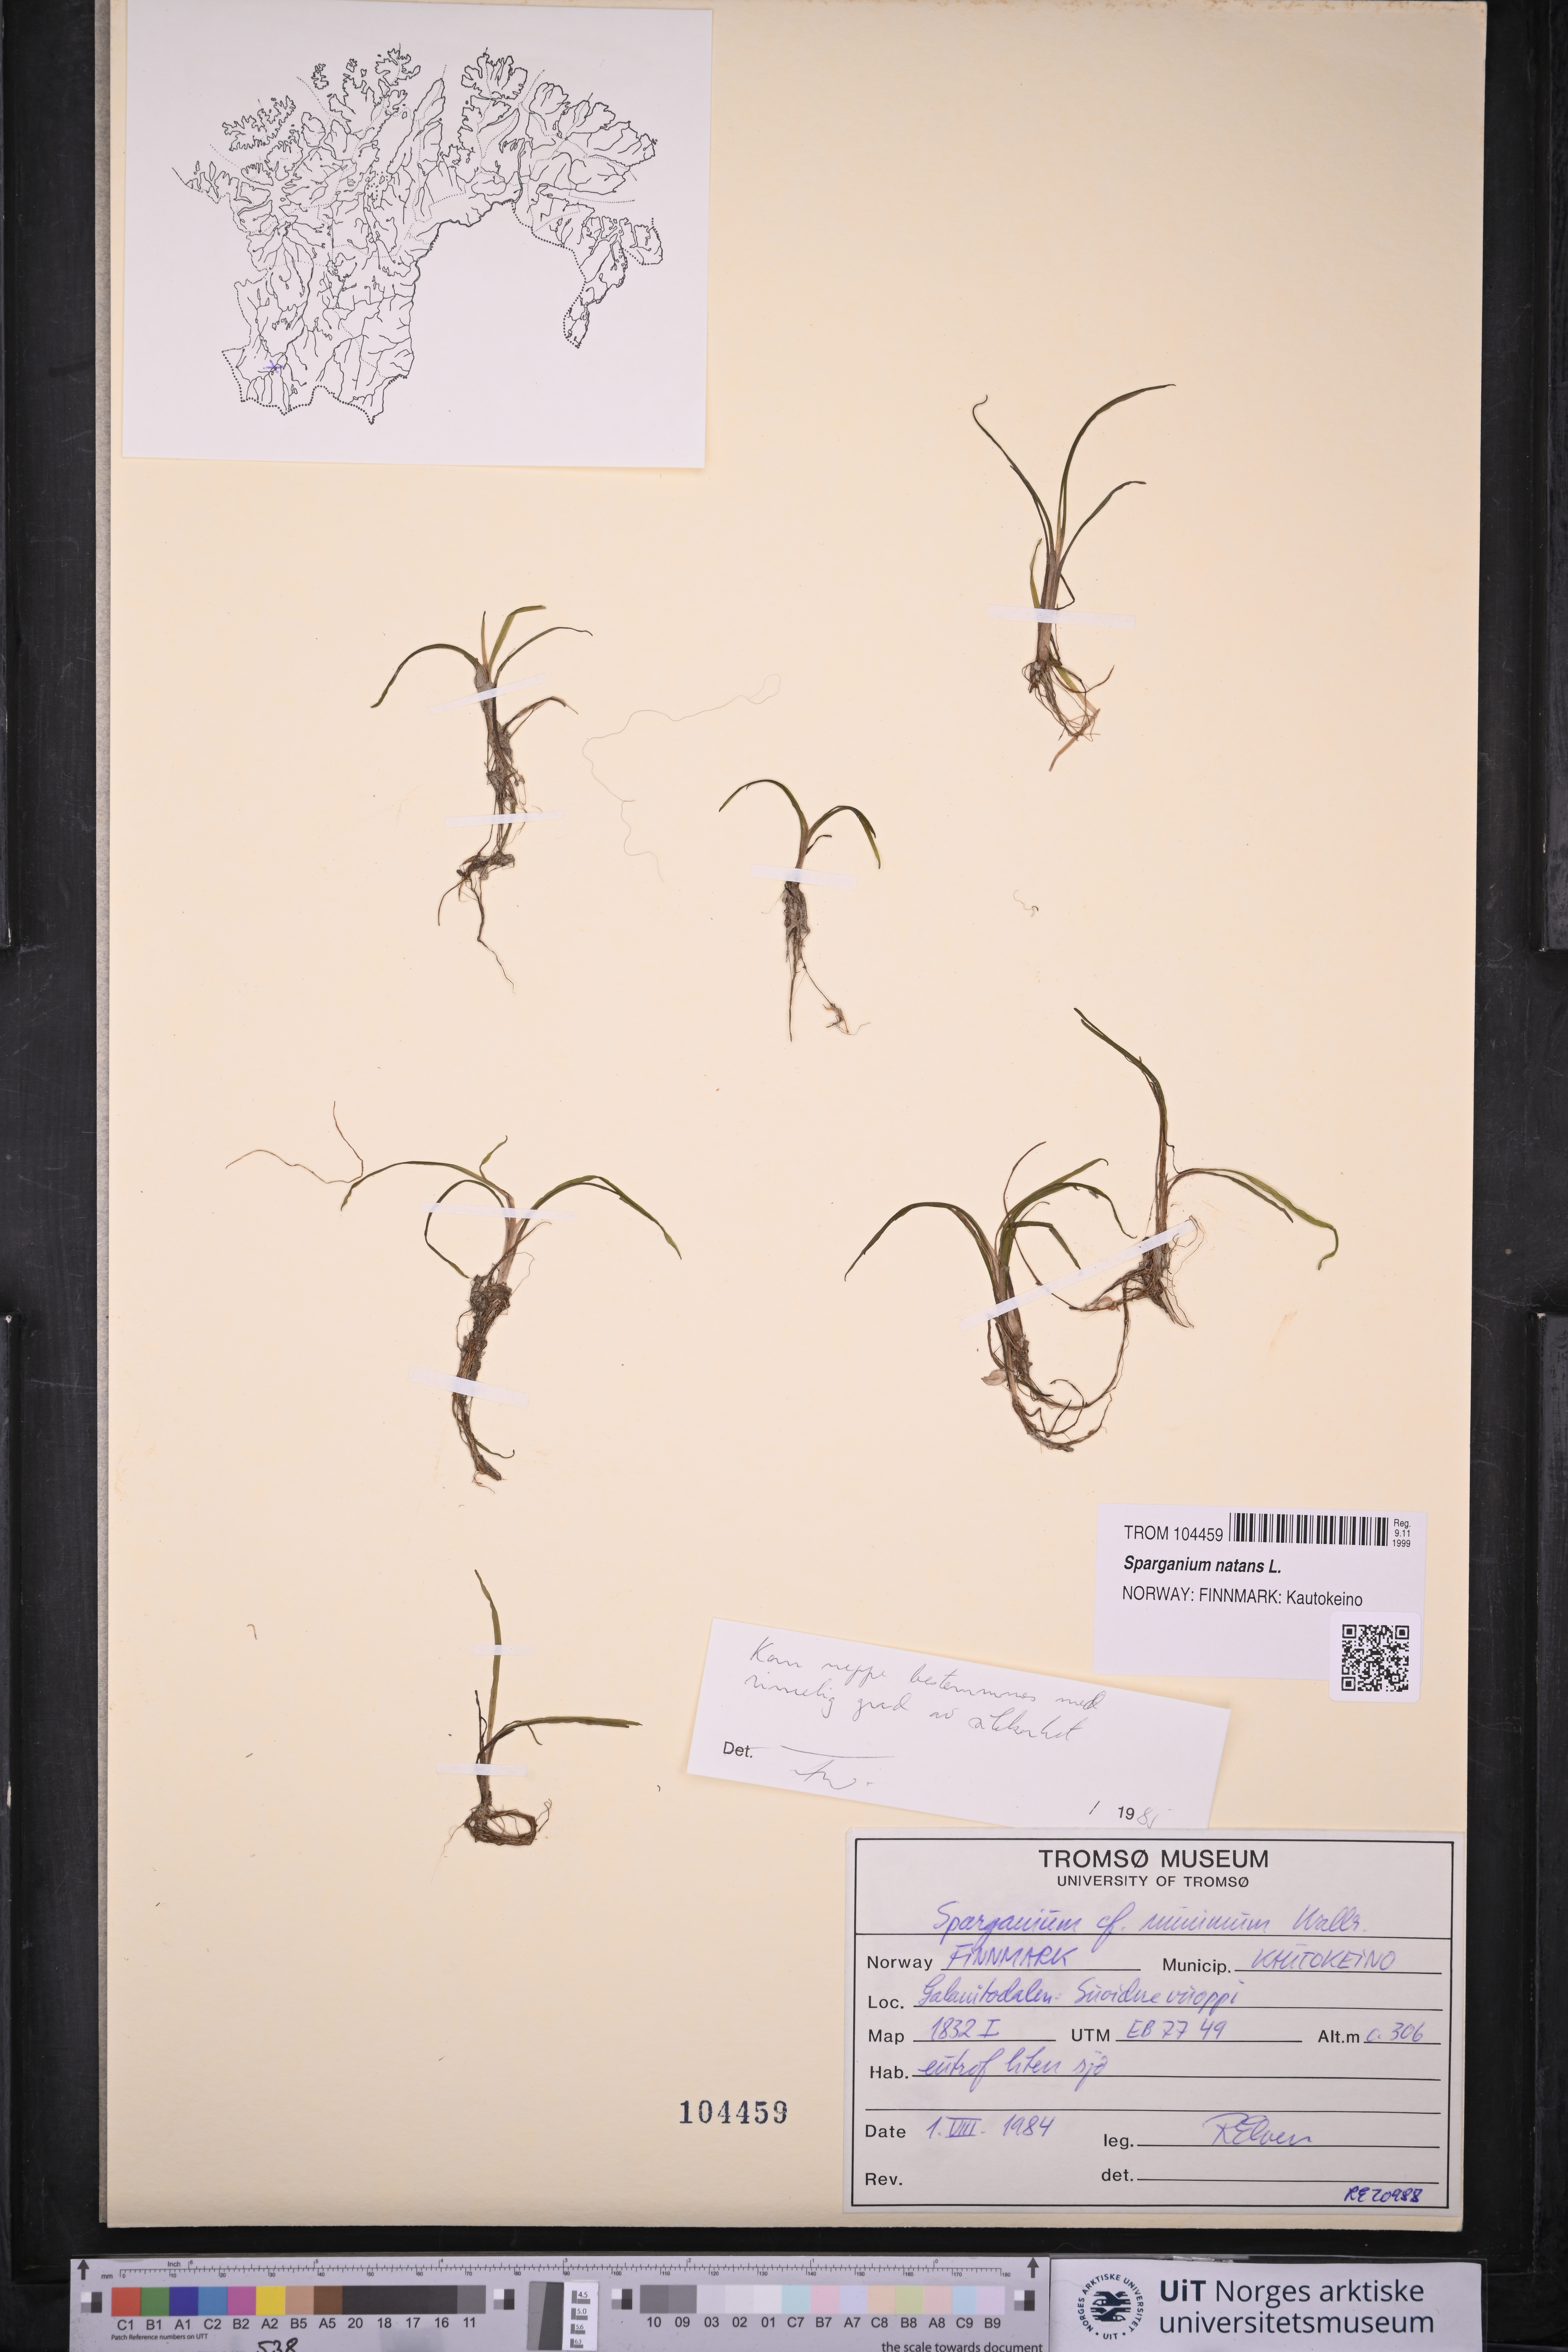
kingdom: Plantae
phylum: Tracheophyta
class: Liliopsida
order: Poales
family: Typhaceae
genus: Sparganium
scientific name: Sparganium natans
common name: Least bur-reed
